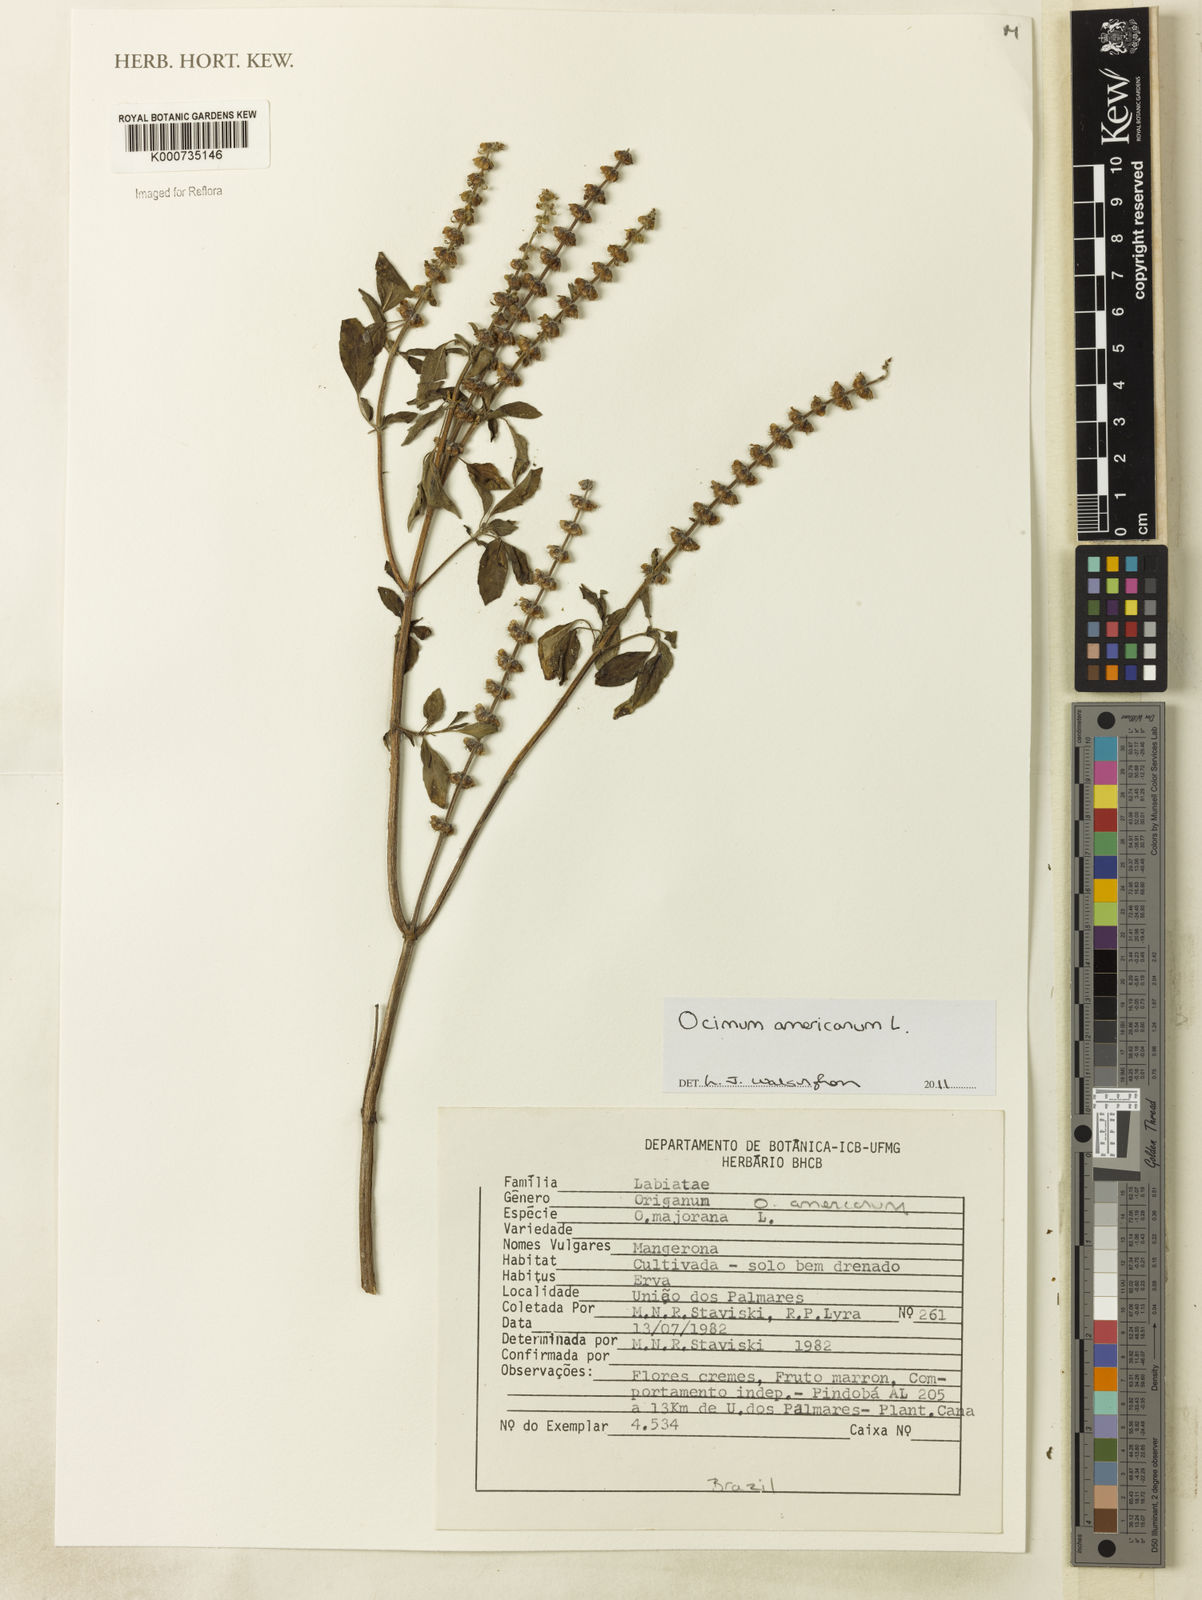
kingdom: Plantae
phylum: Tracheophyta
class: Magnoliopsida
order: Lamiales
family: Lamiaceae
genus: Ocimum
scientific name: Ocimum americanum
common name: American basil
